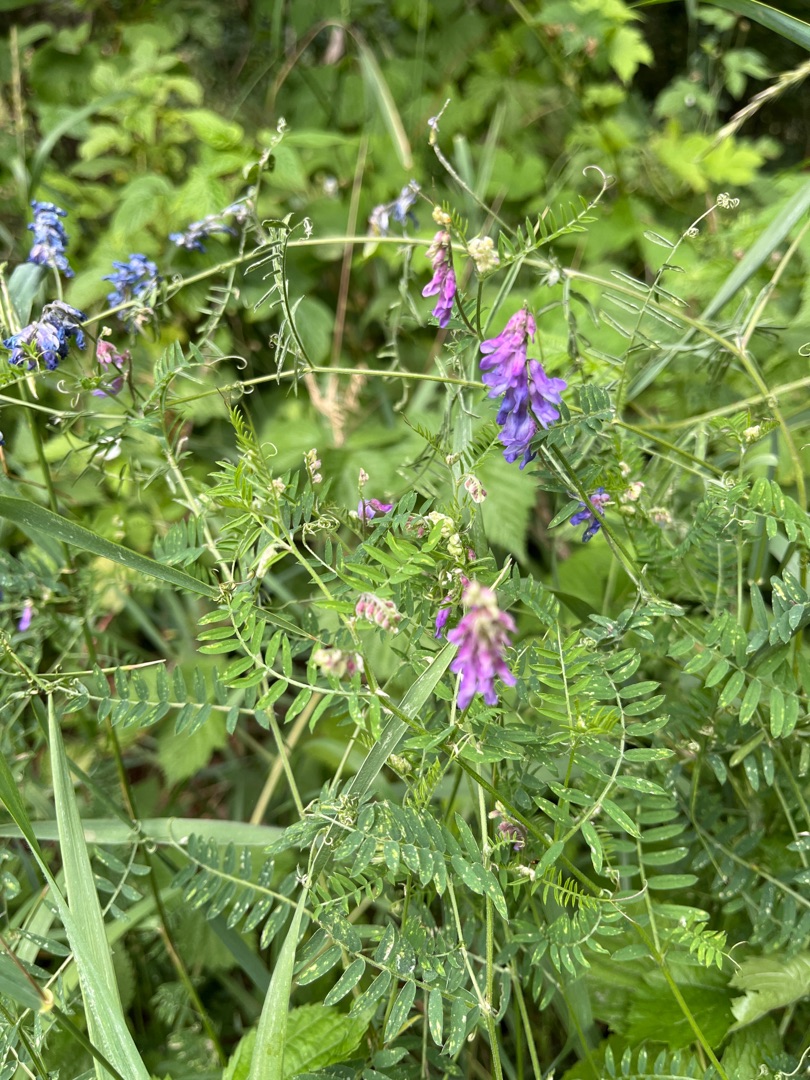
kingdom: Plantae
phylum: Tracheophyta
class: Magnoliopsida
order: Fabales
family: Fabaceae
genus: Vicia
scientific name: Vicia cracca
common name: Muse-vikke
